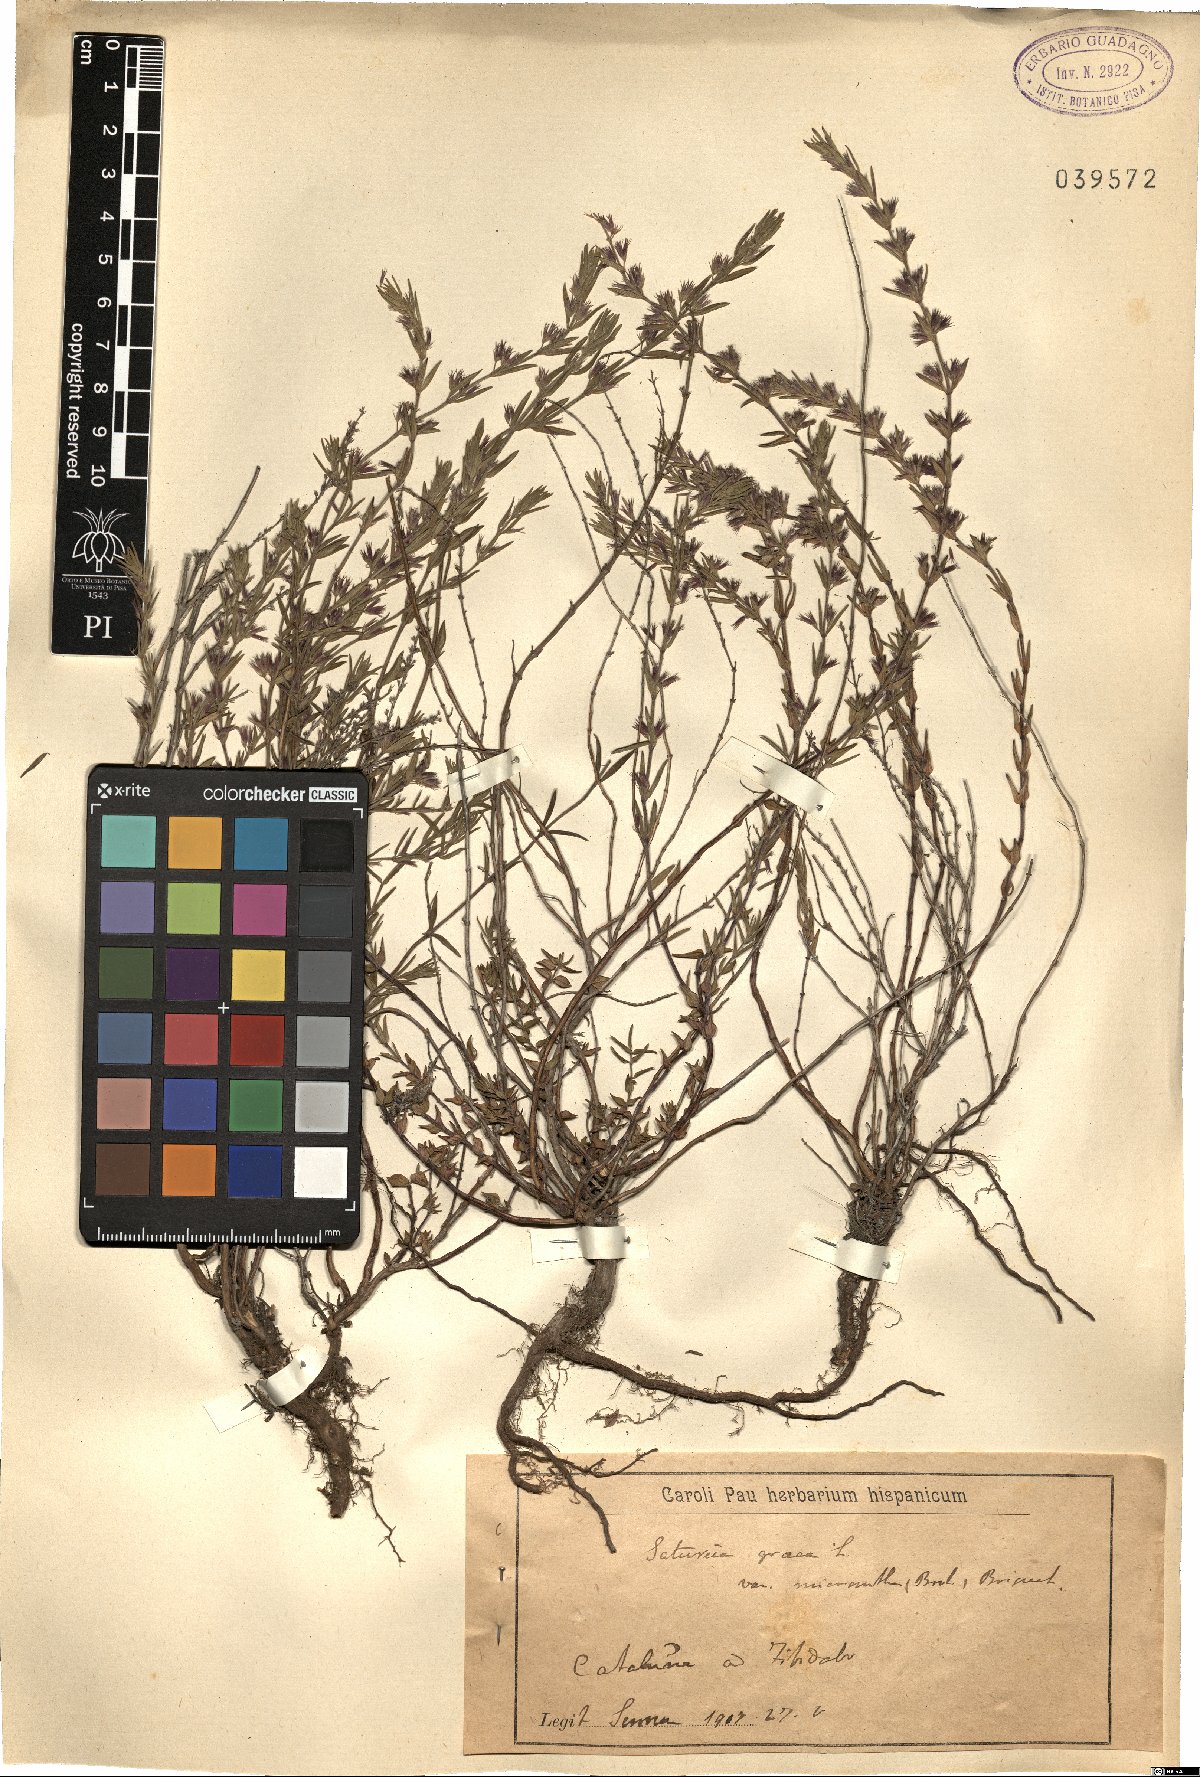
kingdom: Plantae
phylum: Tracheophyta
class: Magnoliopsida
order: Lamiales
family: Lamiaceae
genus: Micromeria
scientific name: Micromeria graeca
